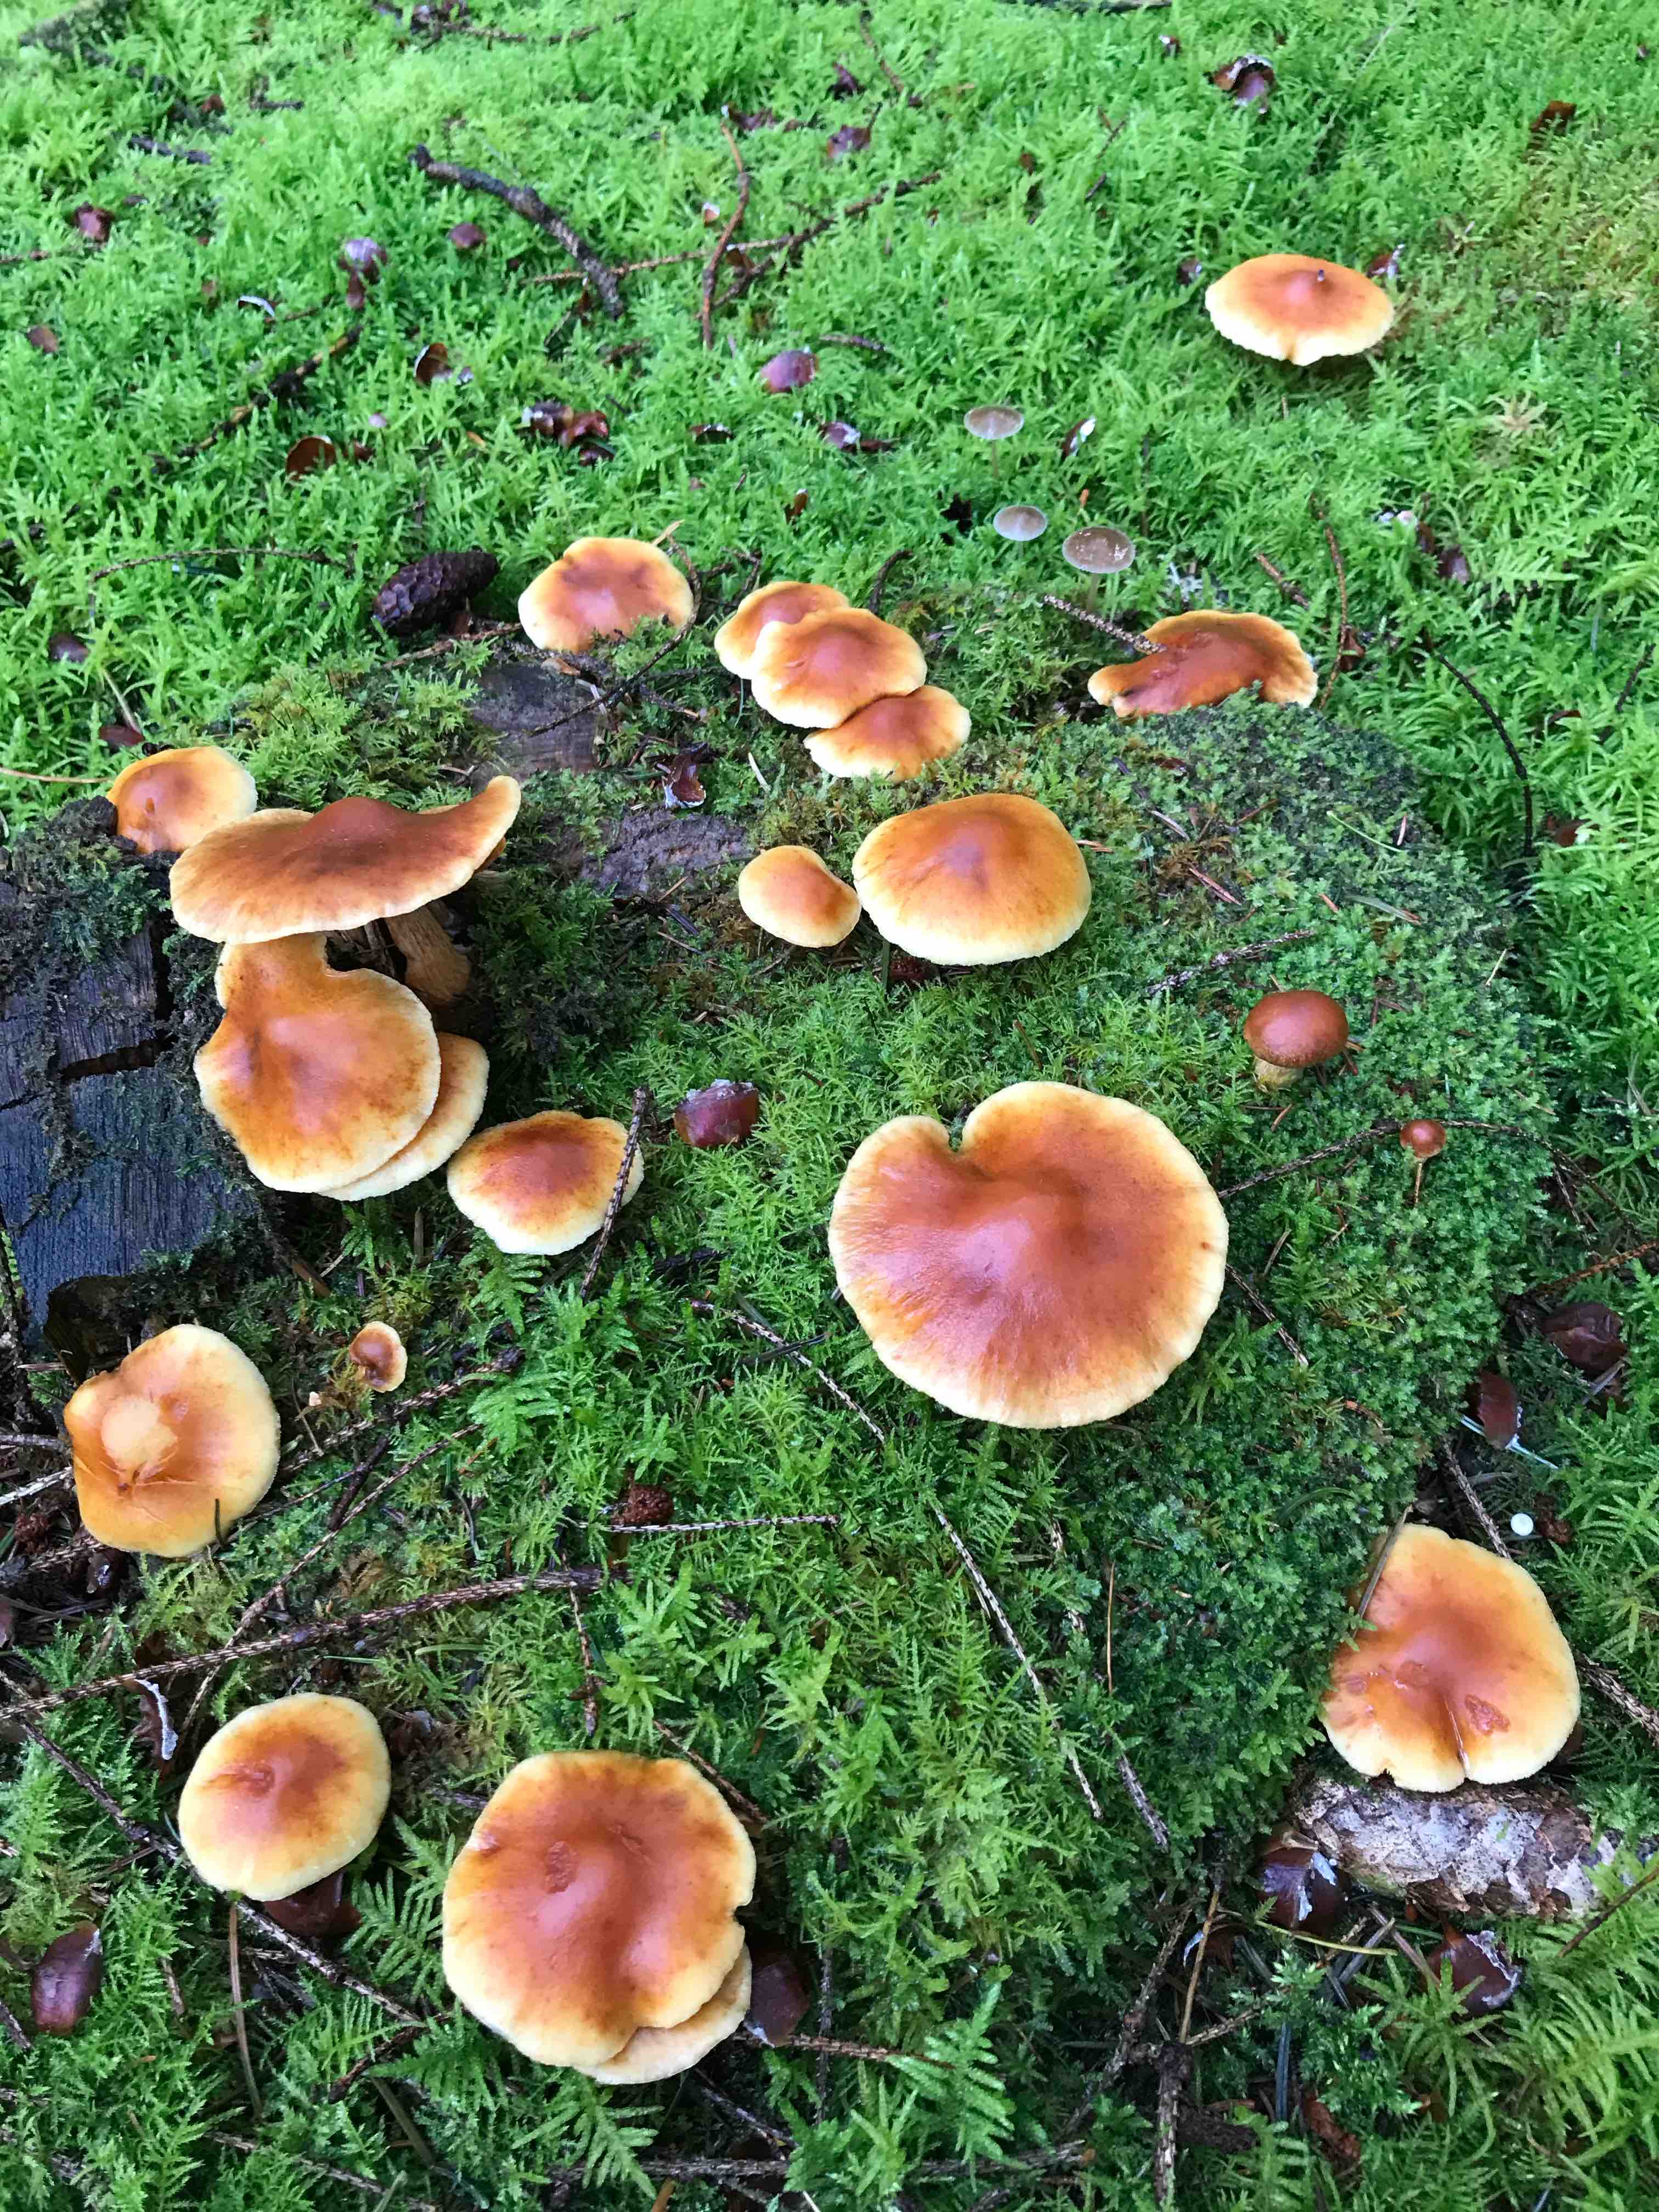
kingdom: Fungi
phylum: Basidiomycota
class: Agaricomycetes
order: Agaricales
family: Hymenogastraceae
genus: Gymnopilus
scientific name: Gymnopilus penetrans
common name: plettet flammehat
